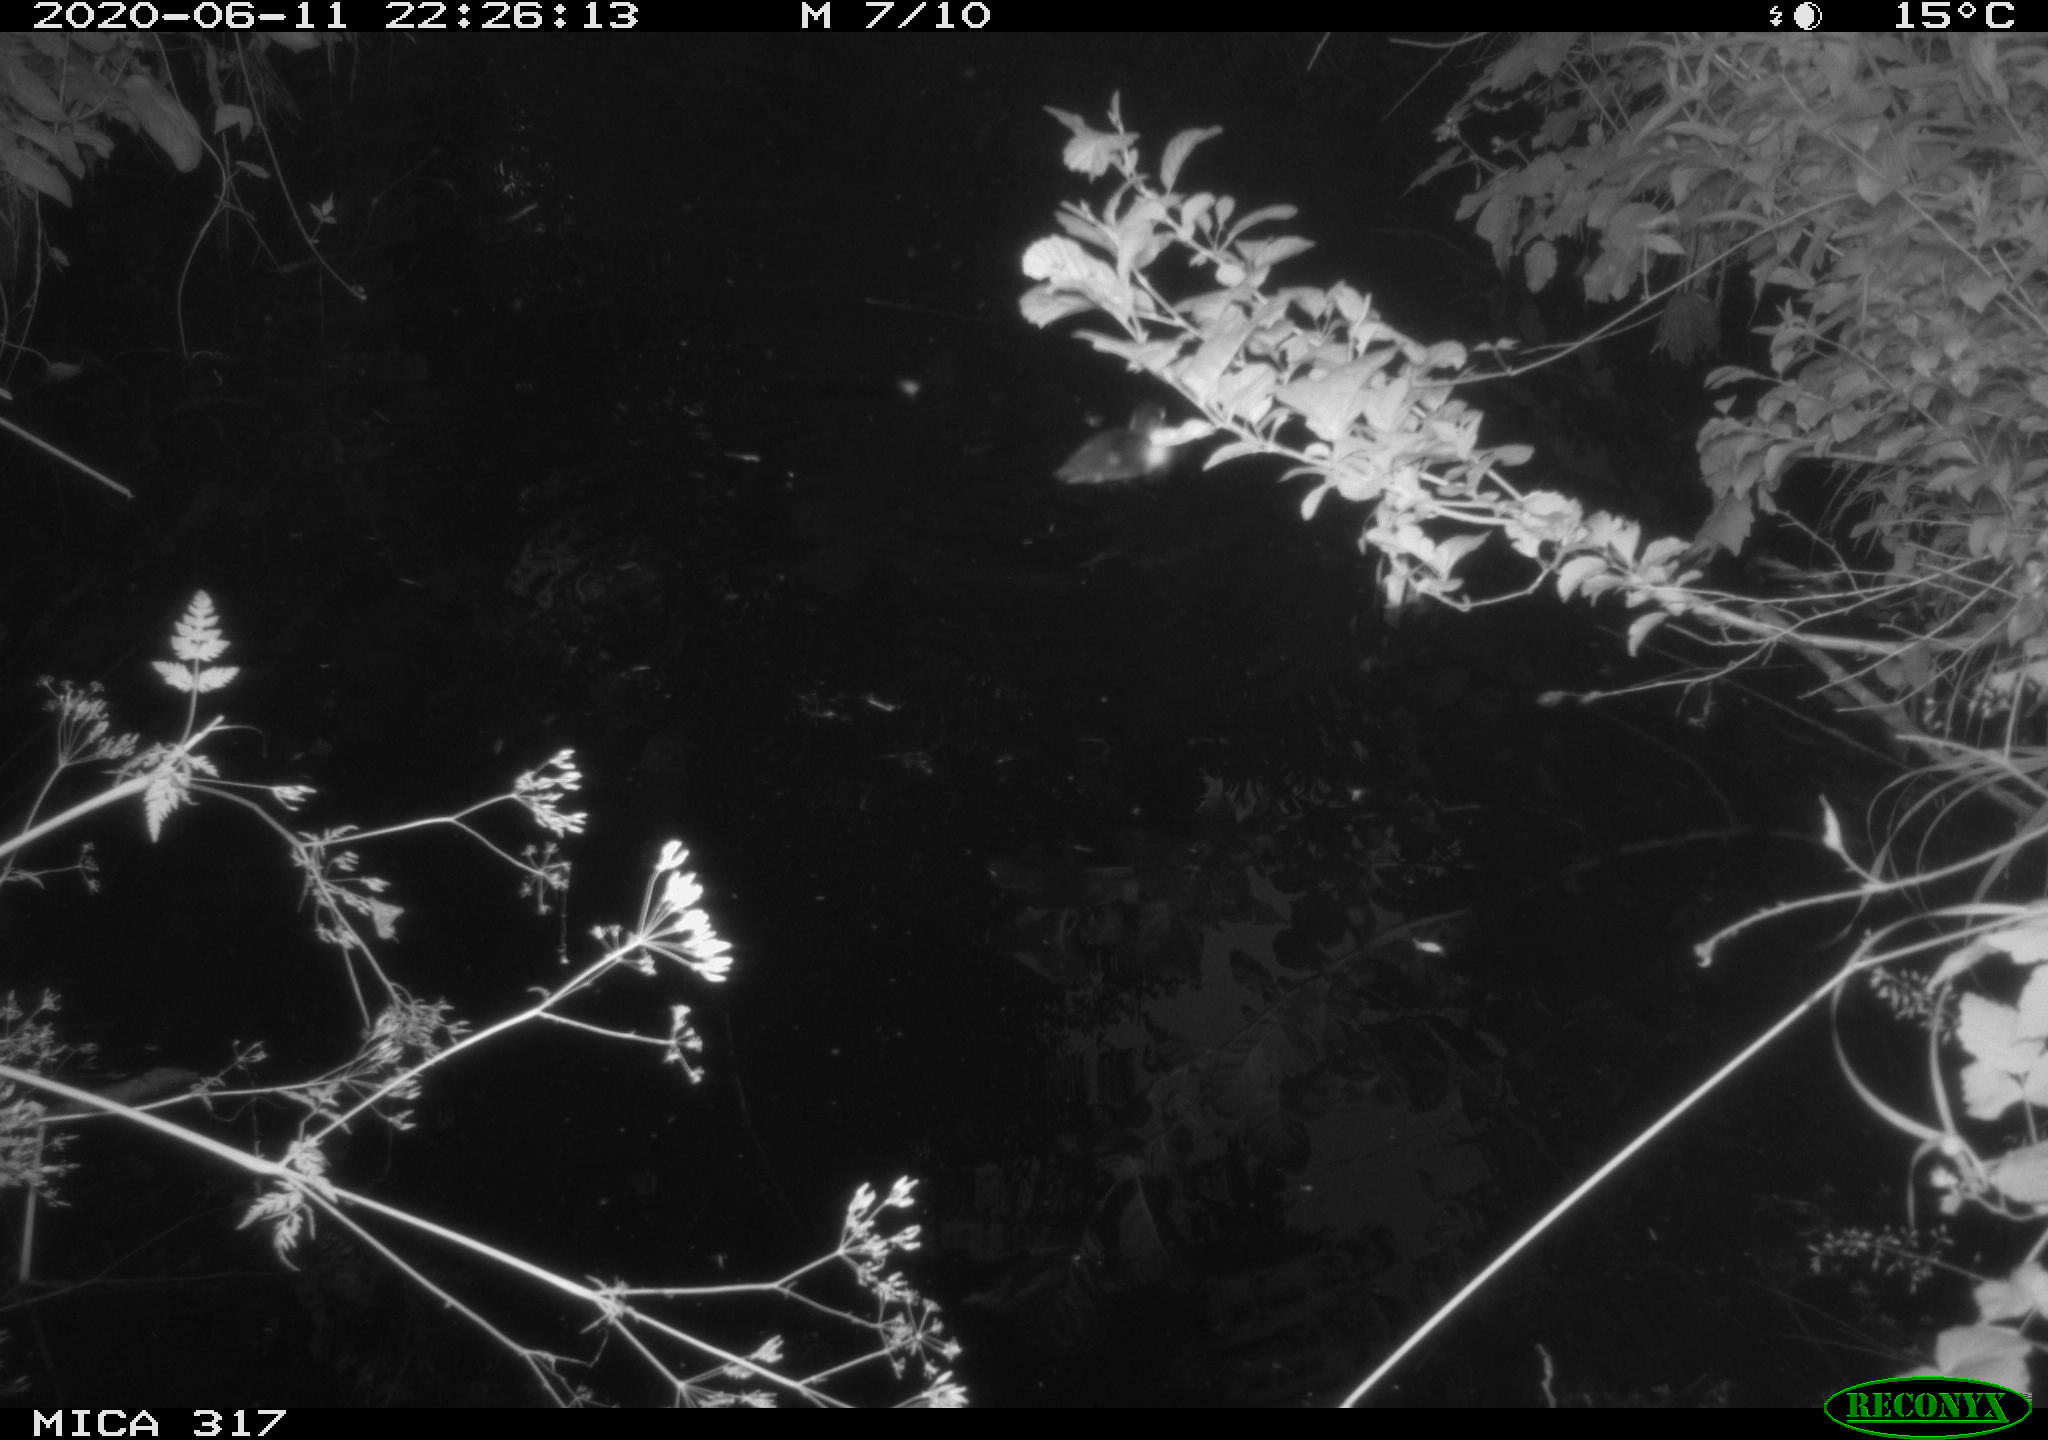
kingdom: Animalia
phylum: Chordata
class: Aves
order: Anseriformes
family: Anatidae
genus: Anas
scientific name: Anas platyrhynchos
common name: Mallard
